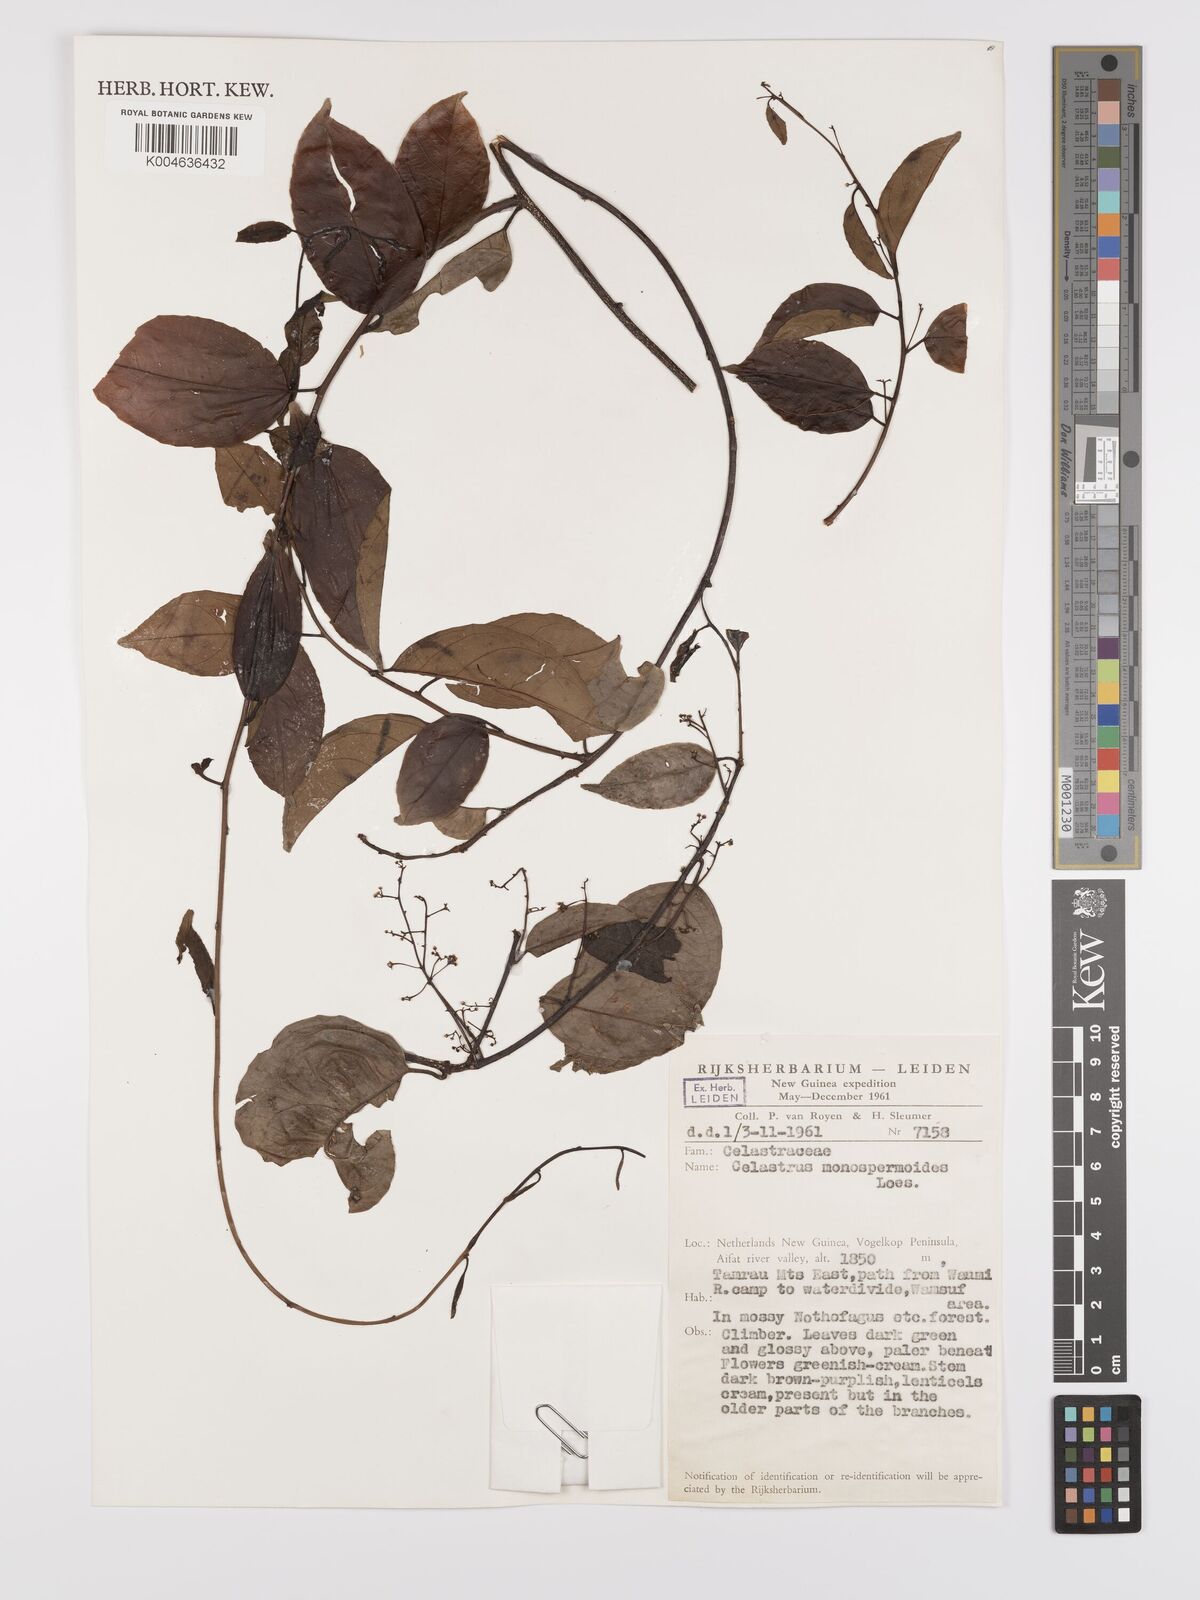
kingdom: Plantae
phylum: Tracheophyta
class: Magnoliopsida
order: Celastrales
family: Celastraceae
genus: Celastrus
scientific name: Celastrus monospermoides
